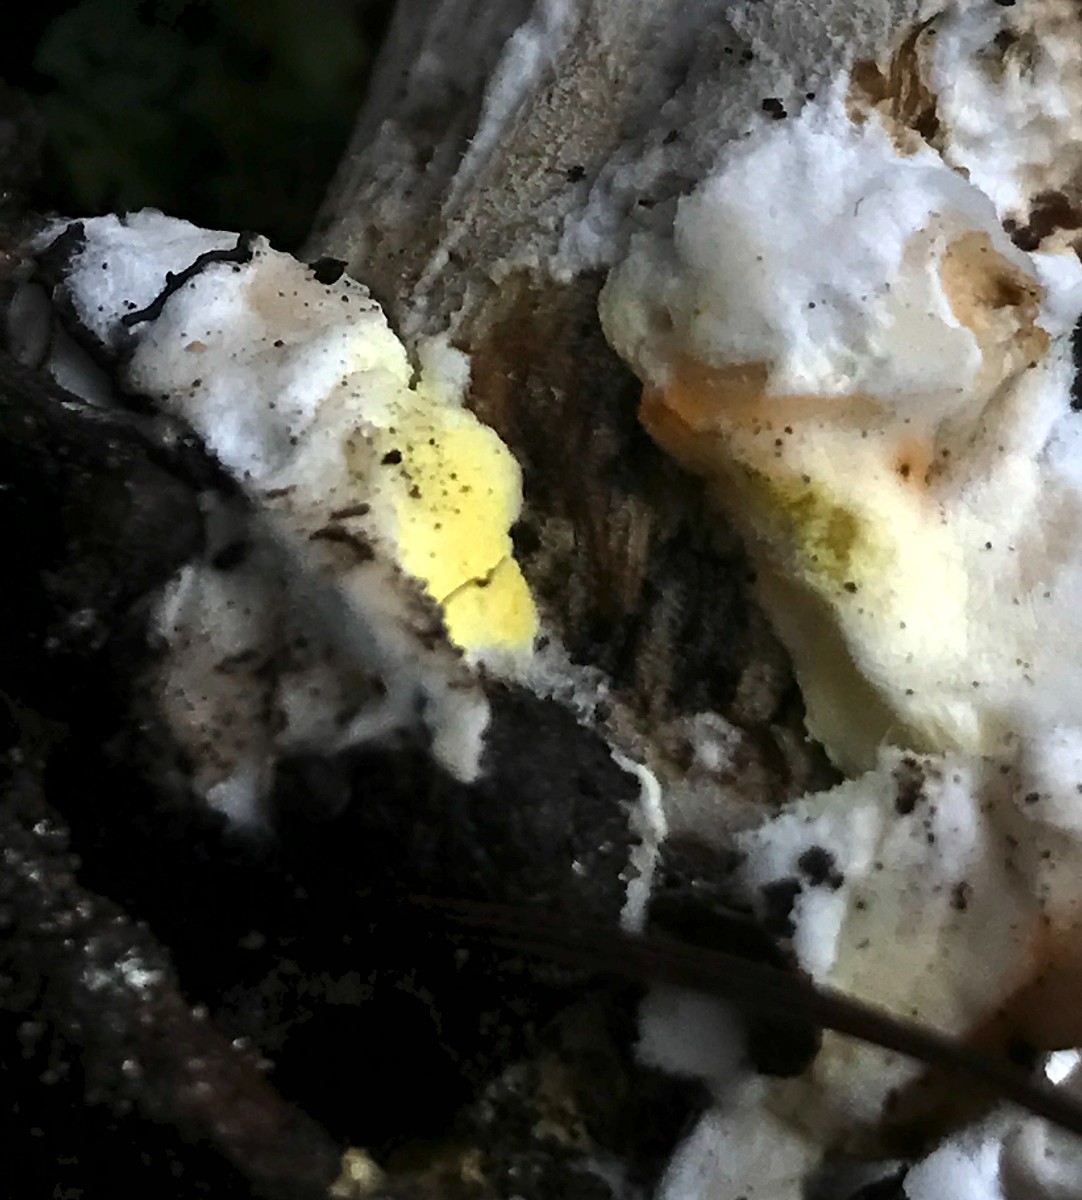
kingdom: Fungi
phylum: Ascomycota
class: Sordariomycetes
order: Hypocreales
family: Hypocreaceae
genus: Hypomyces
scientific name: Hypomyces chrysospermus
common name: gulskimmel-snylteskorpe
